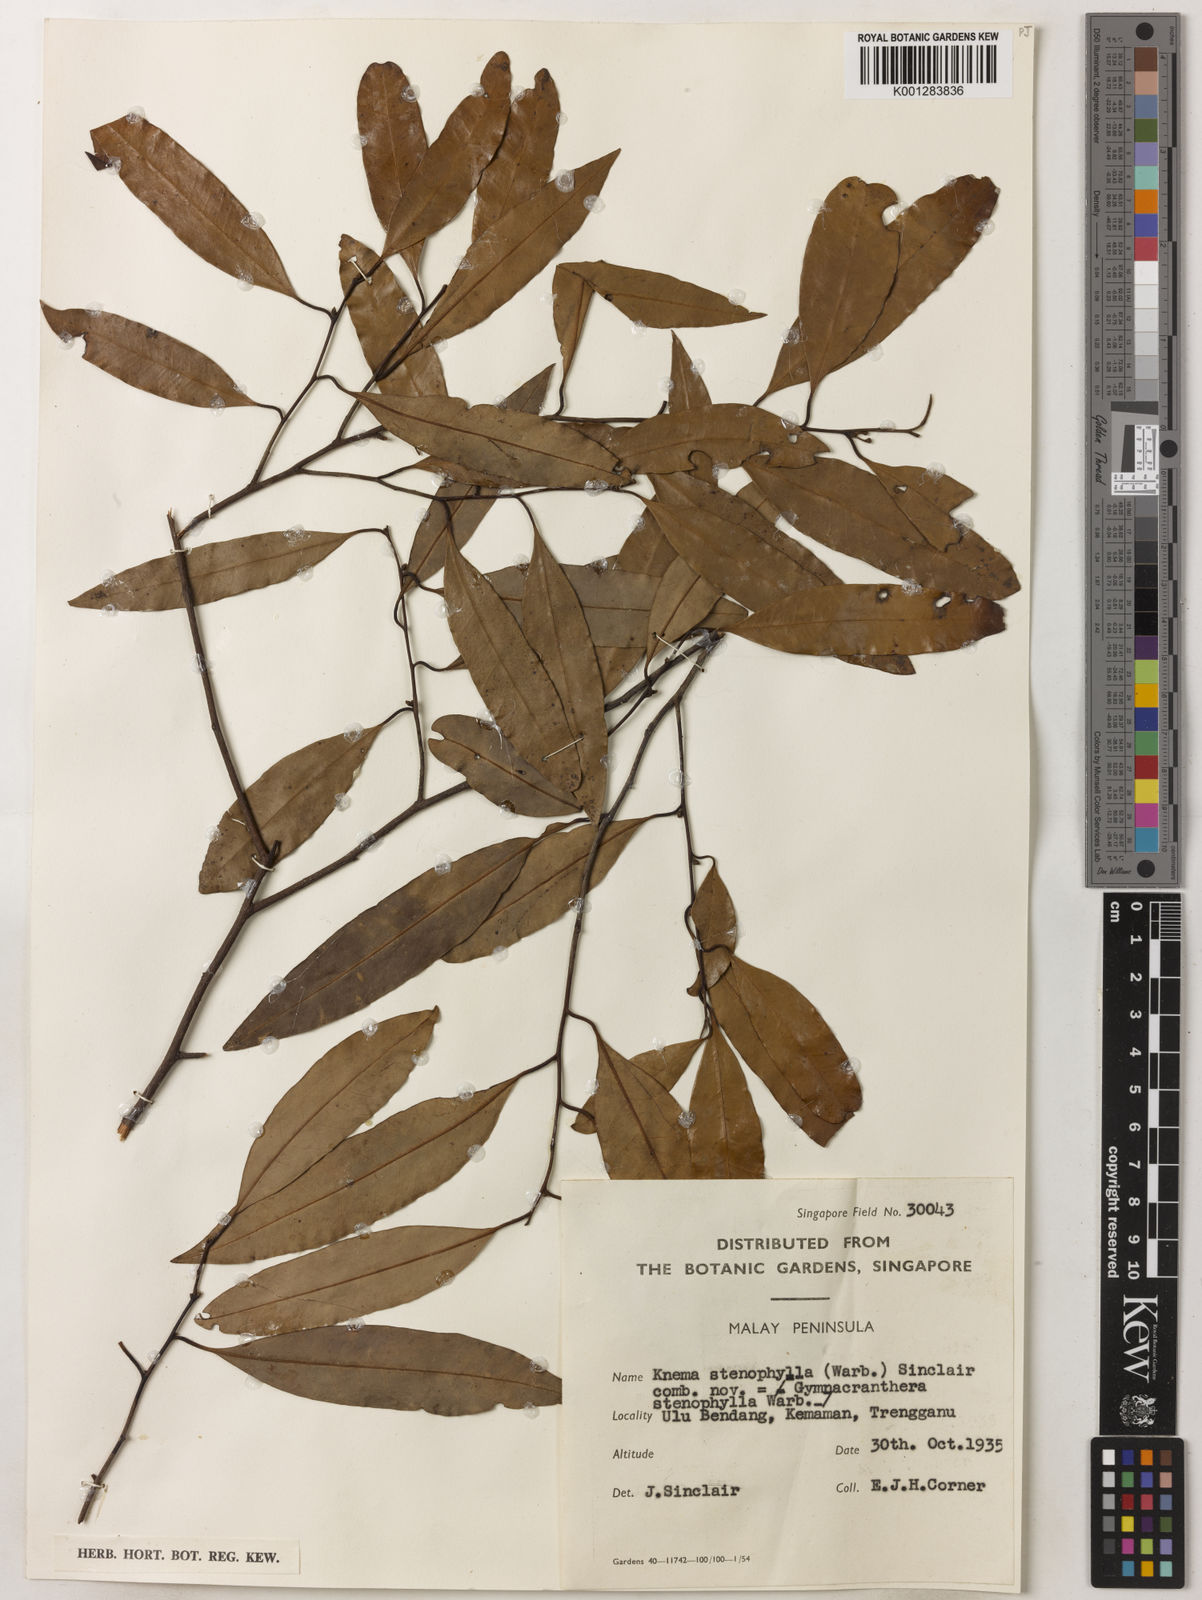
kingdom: Plantae
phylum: Tracheophyta
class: Magnoliopsida
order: Magnoliales
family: Myristicaceae
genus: Knema
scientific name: Knema stenophylla
